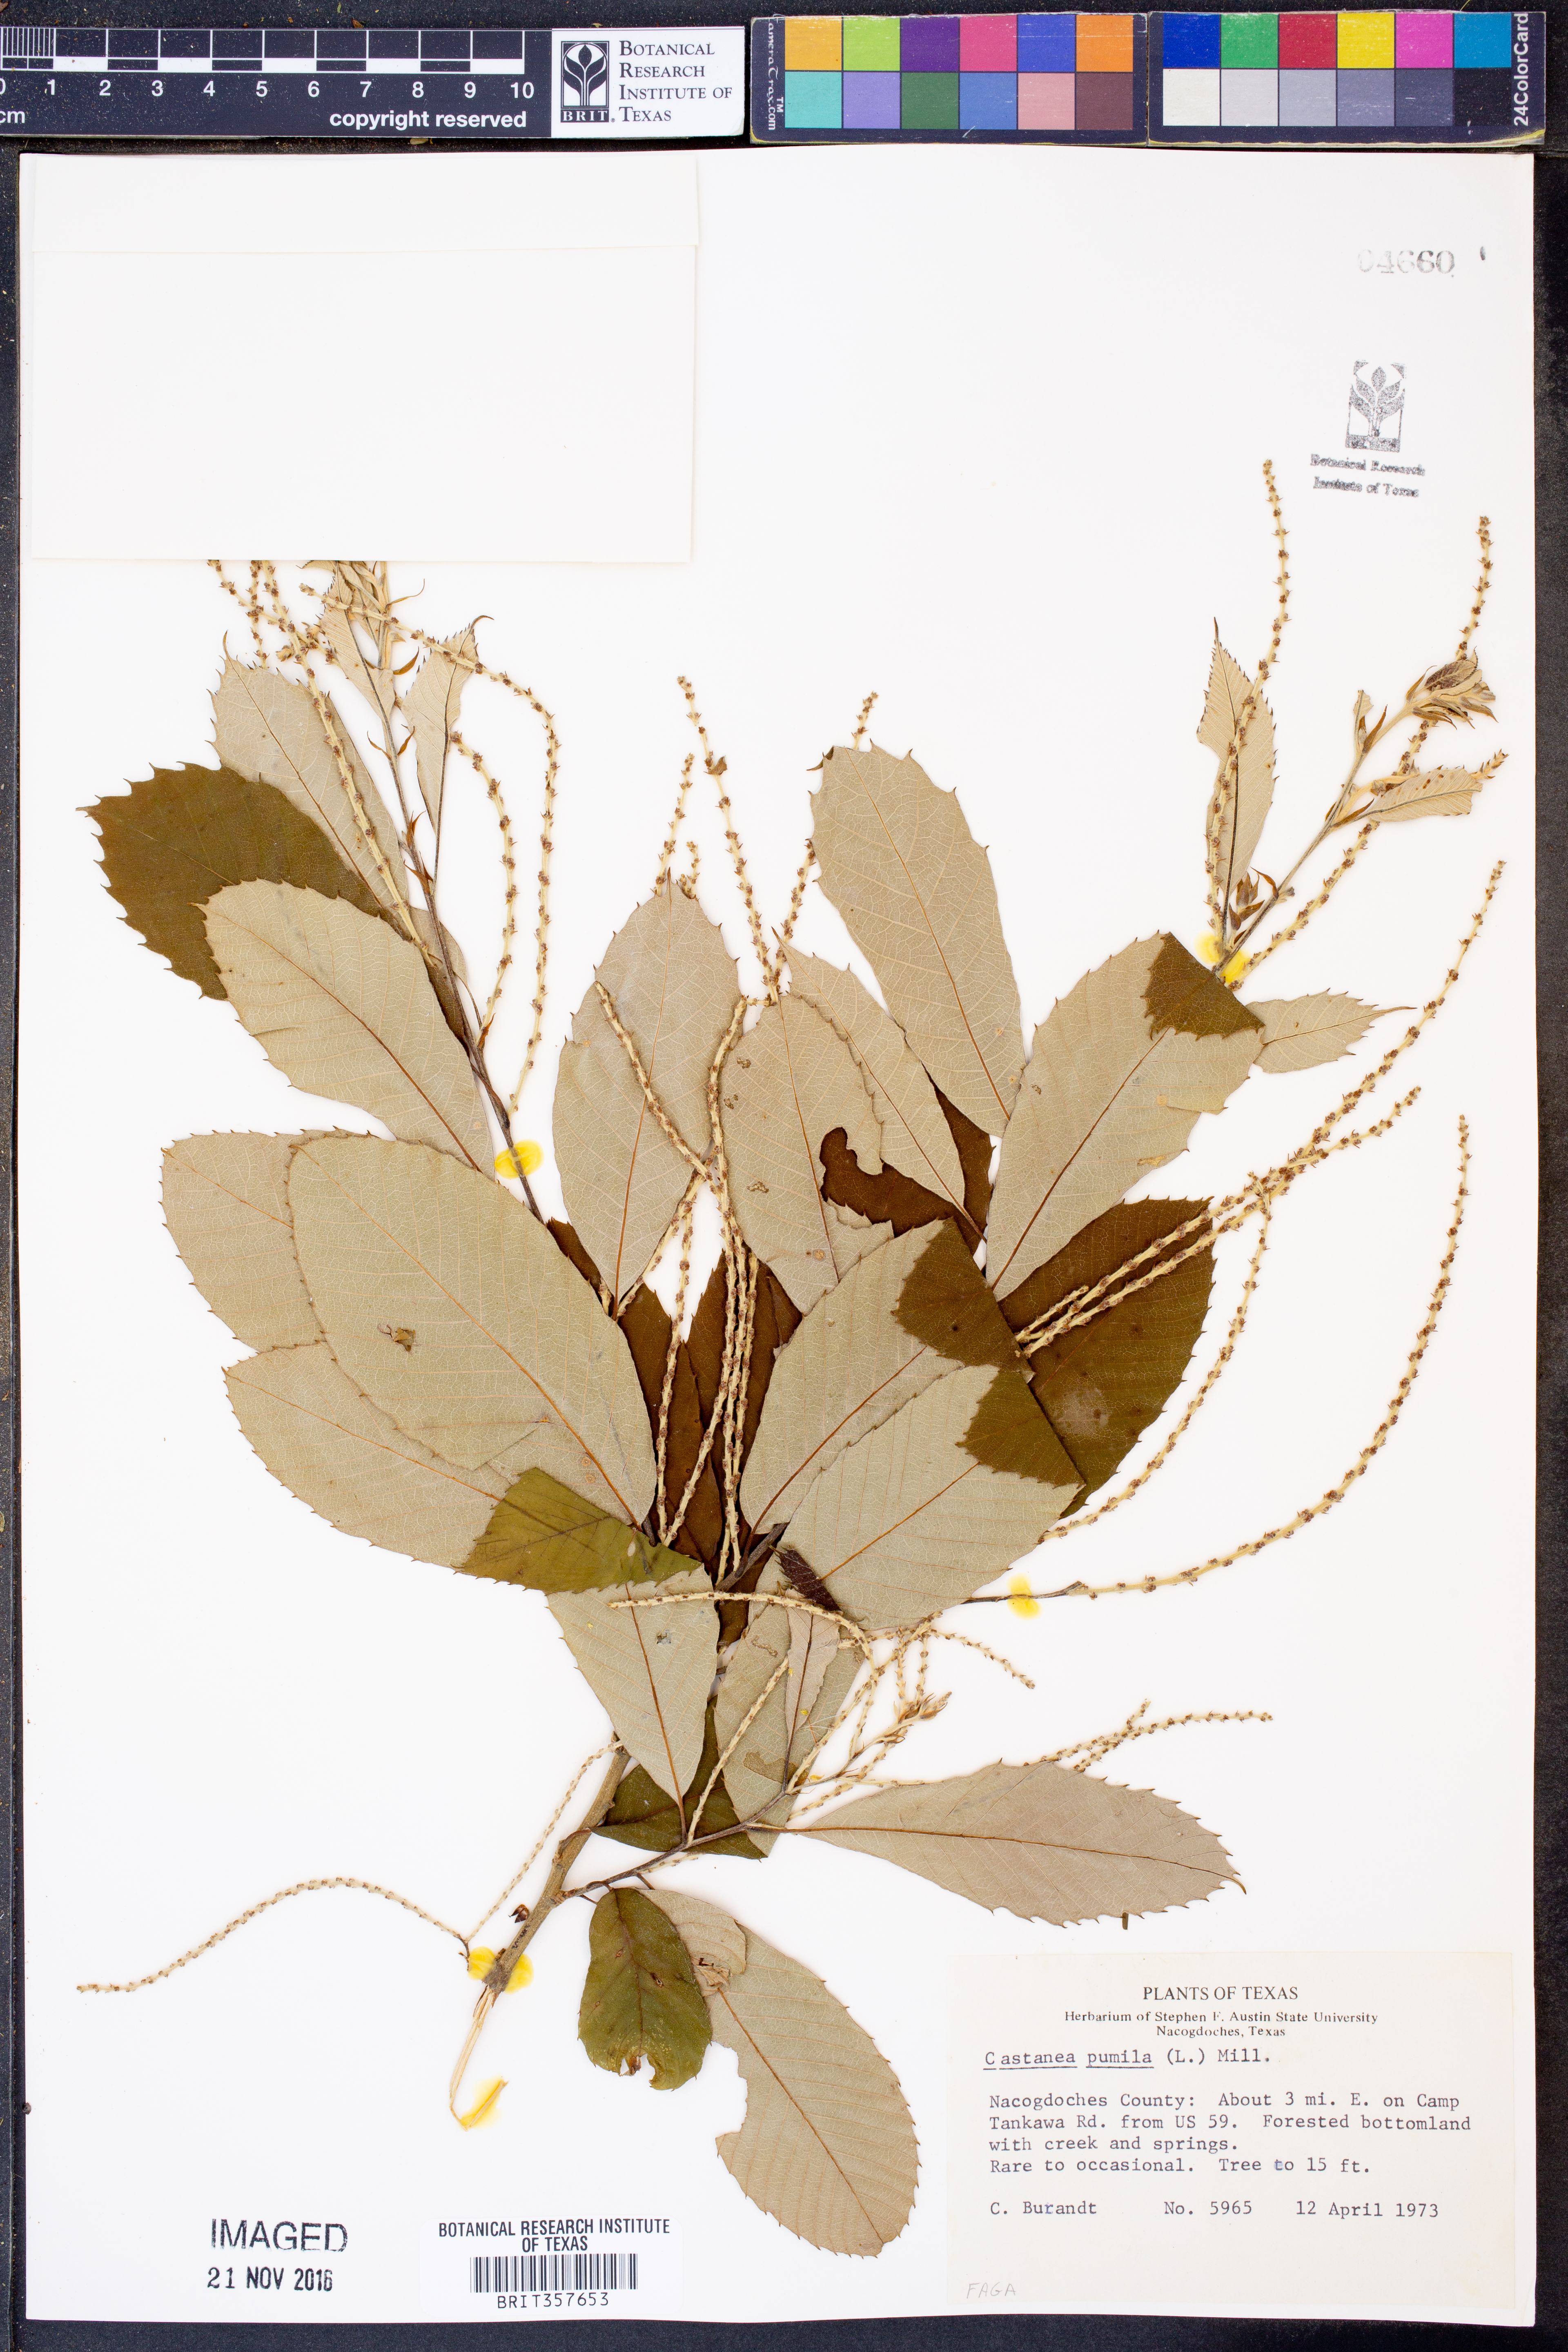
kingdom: Plantae
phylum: Tracheophyta
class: Magnoliopsida
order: Fagales
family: Fagaceae
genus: Castanea
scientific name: Castanea pumila
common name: Chinkapin
